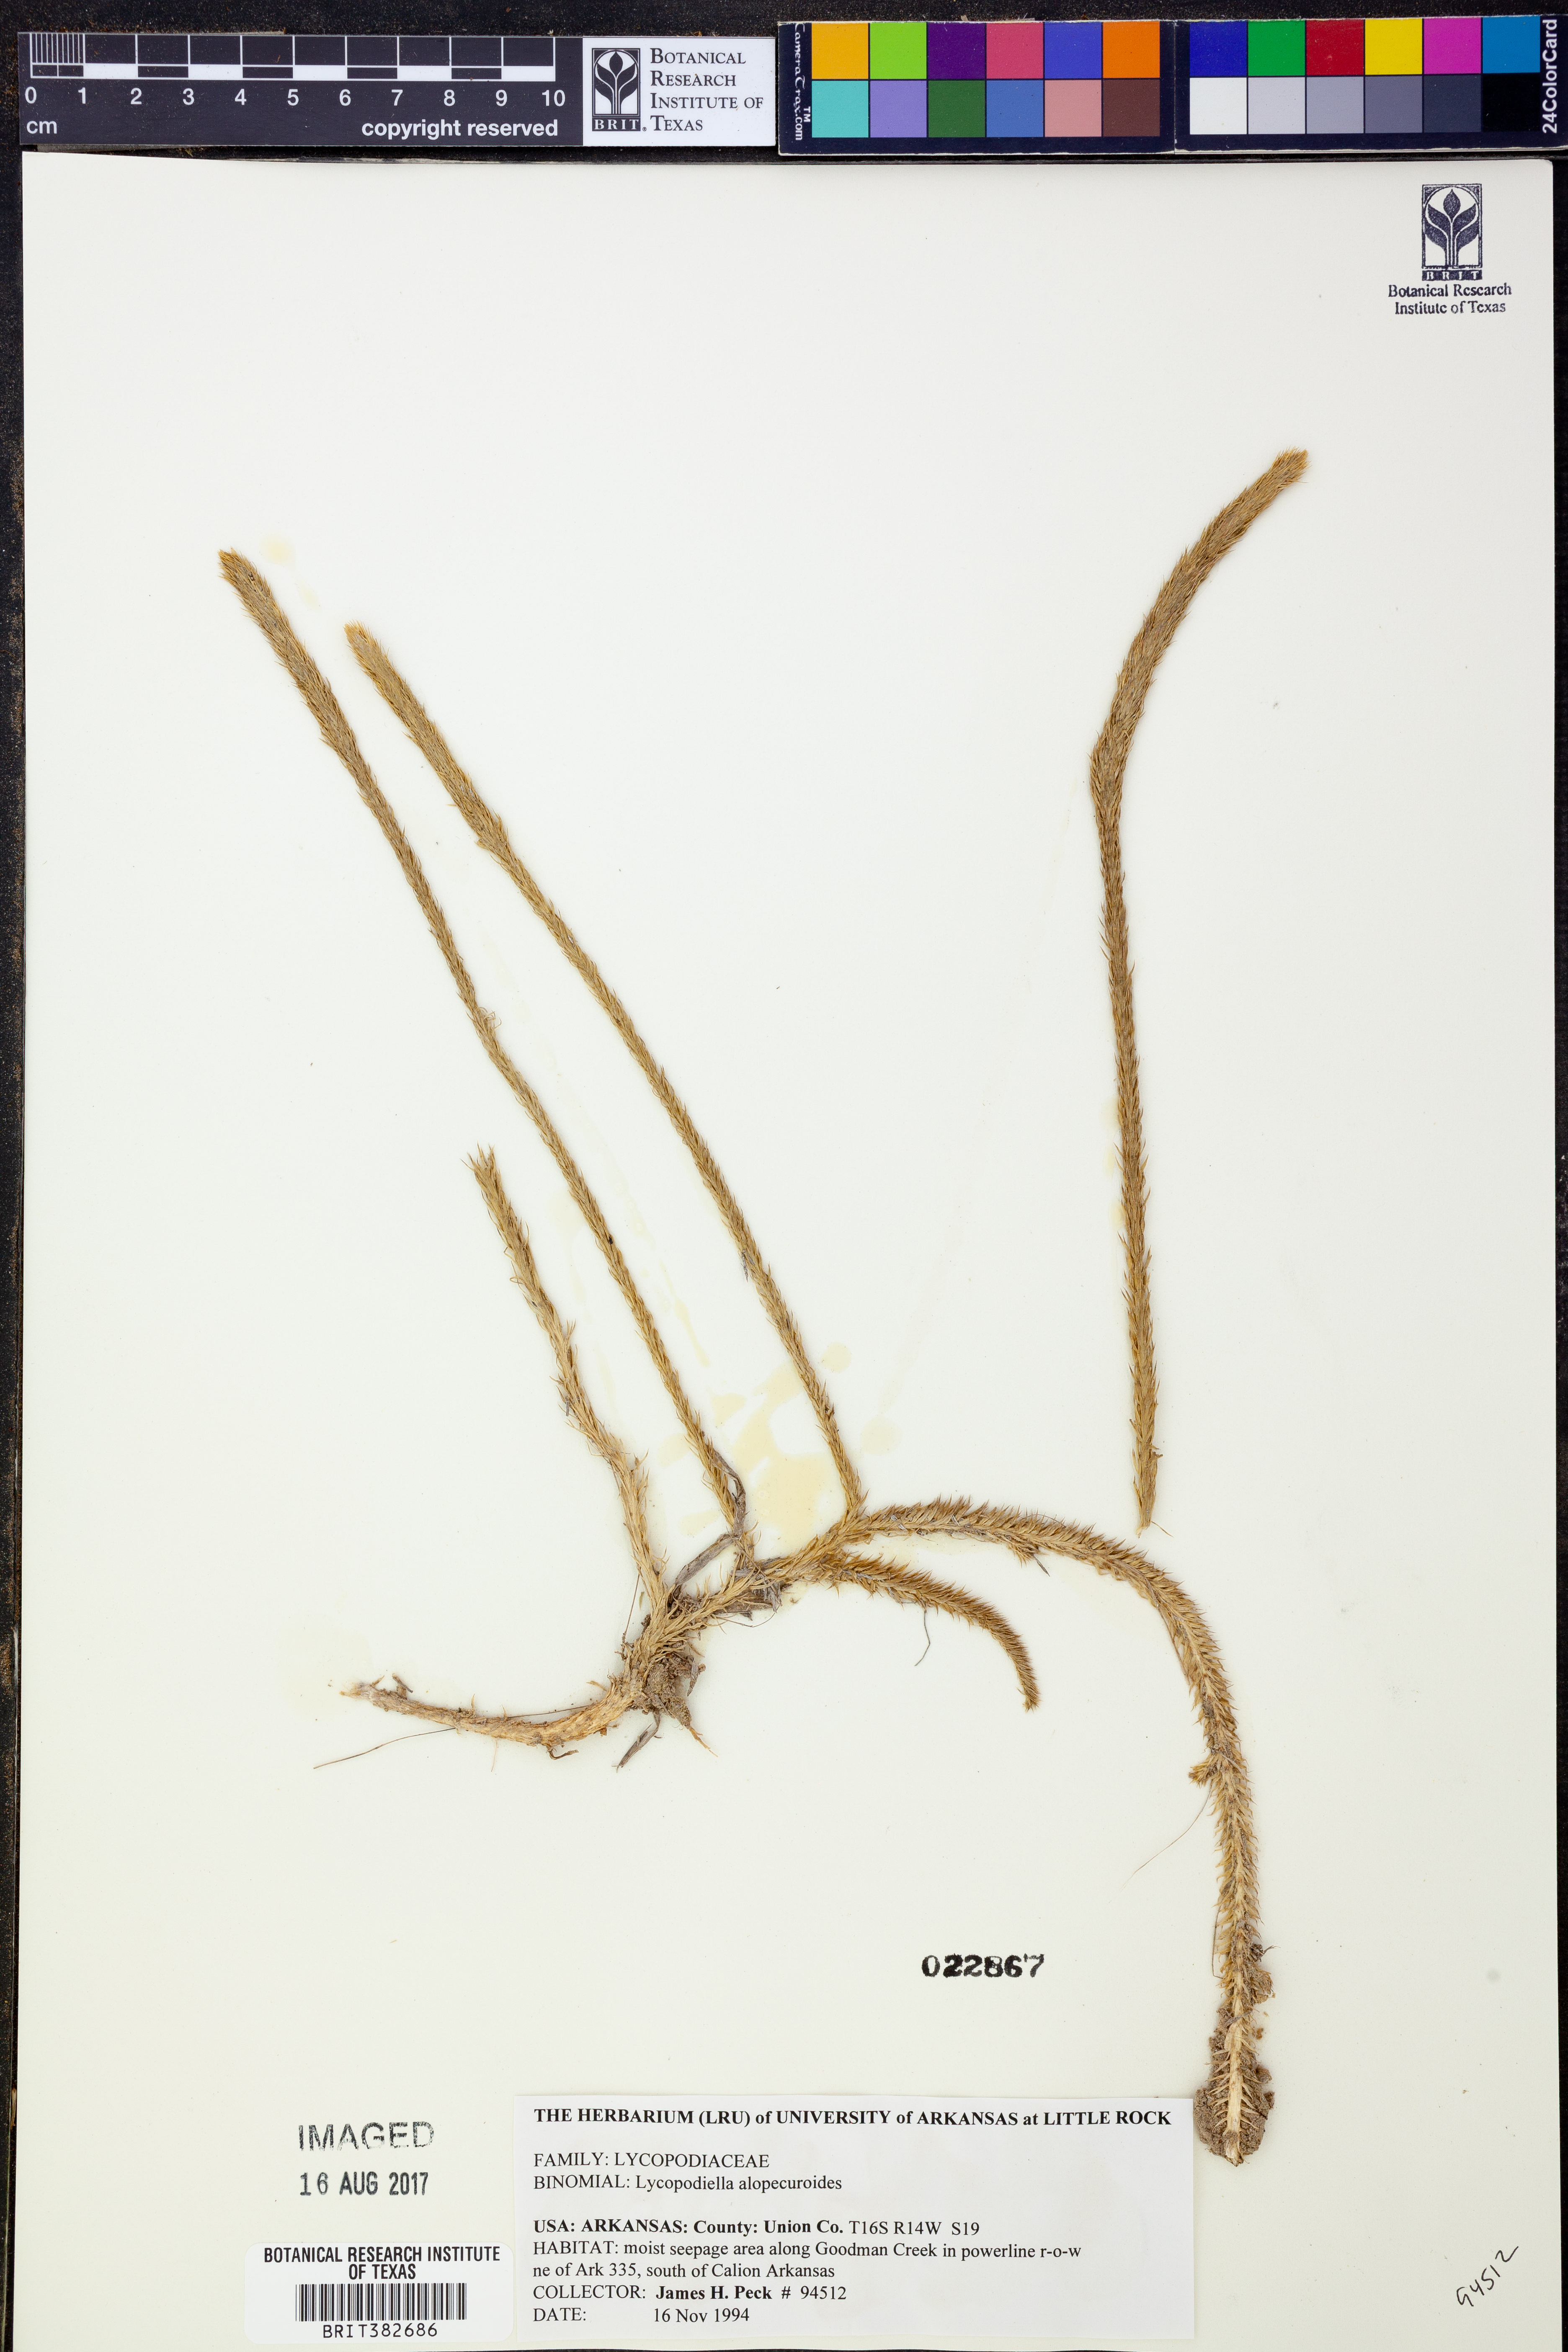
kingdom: Plantae
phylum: Tracheophyta
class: Lycopodiopsida
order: Lycopodiales
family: Lycopodiaceae
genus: Lycopodiella
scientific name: Lycopodiella alopecuroides
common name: Foxtail clubmoss
